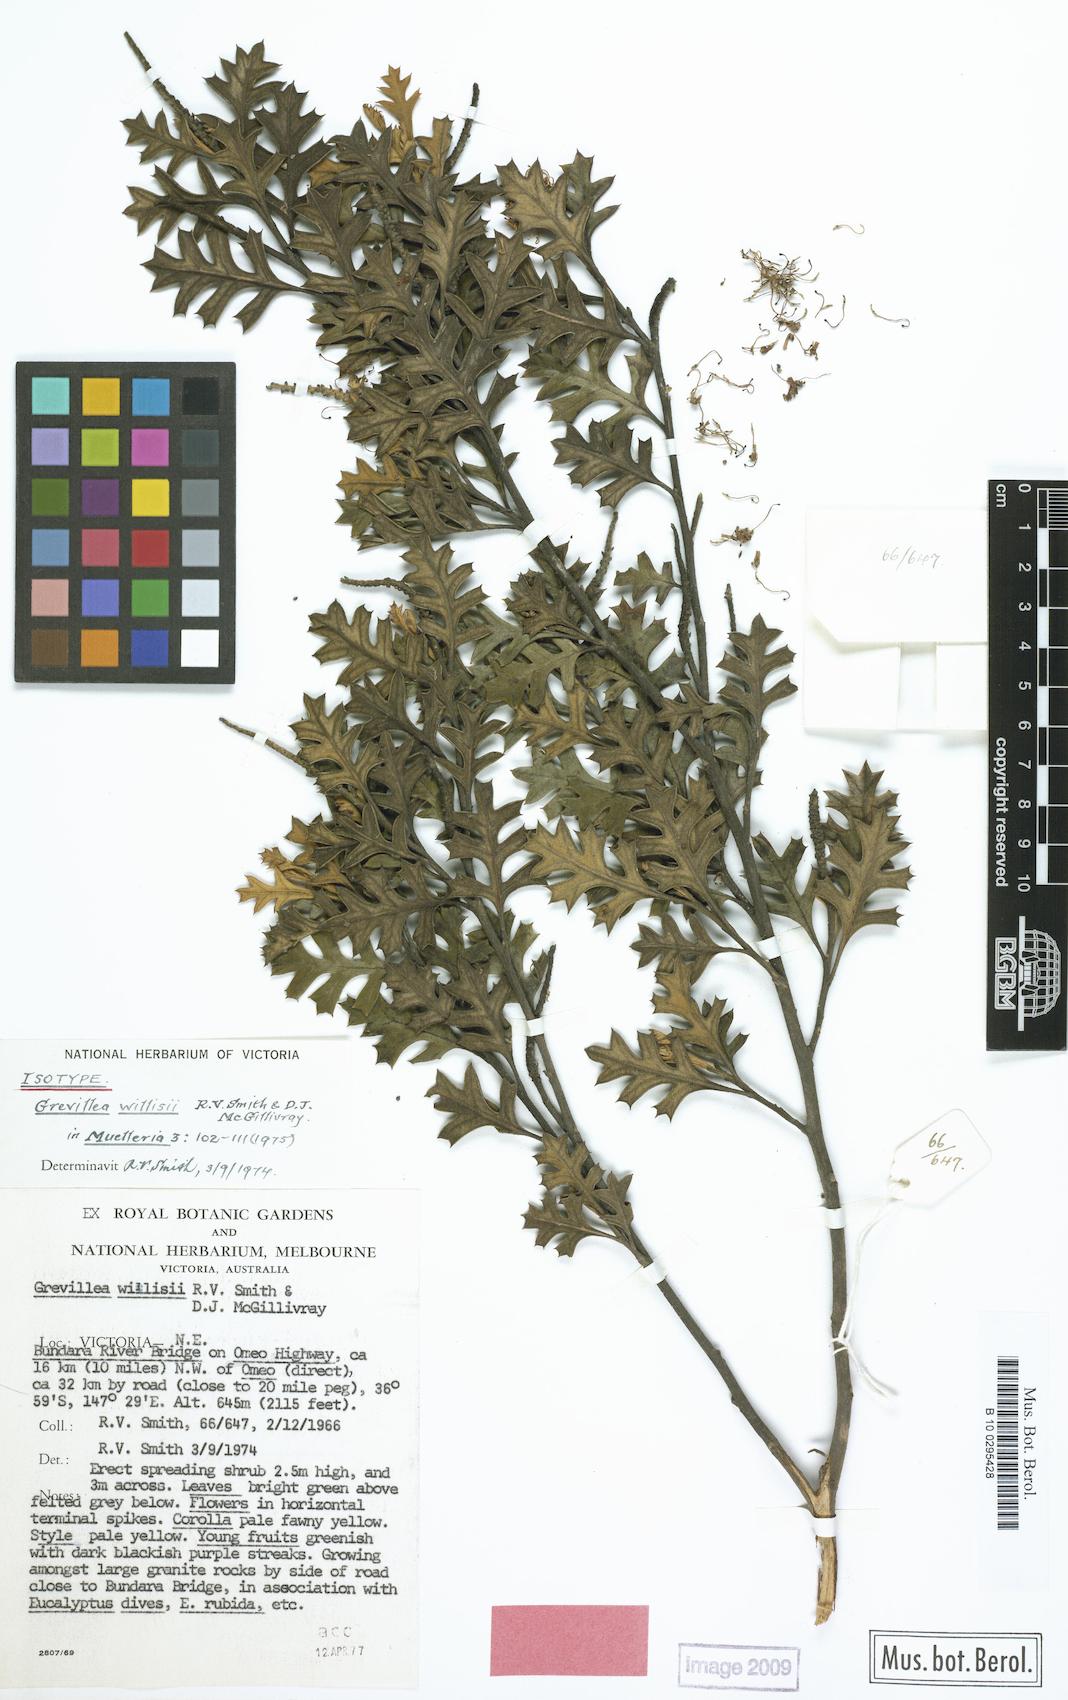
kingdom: Plantae
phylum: Tracheophyta
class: Magnoliopsida
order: Proteales
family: Proteaceae
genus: Grevillea
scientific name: Grevillea willisii
